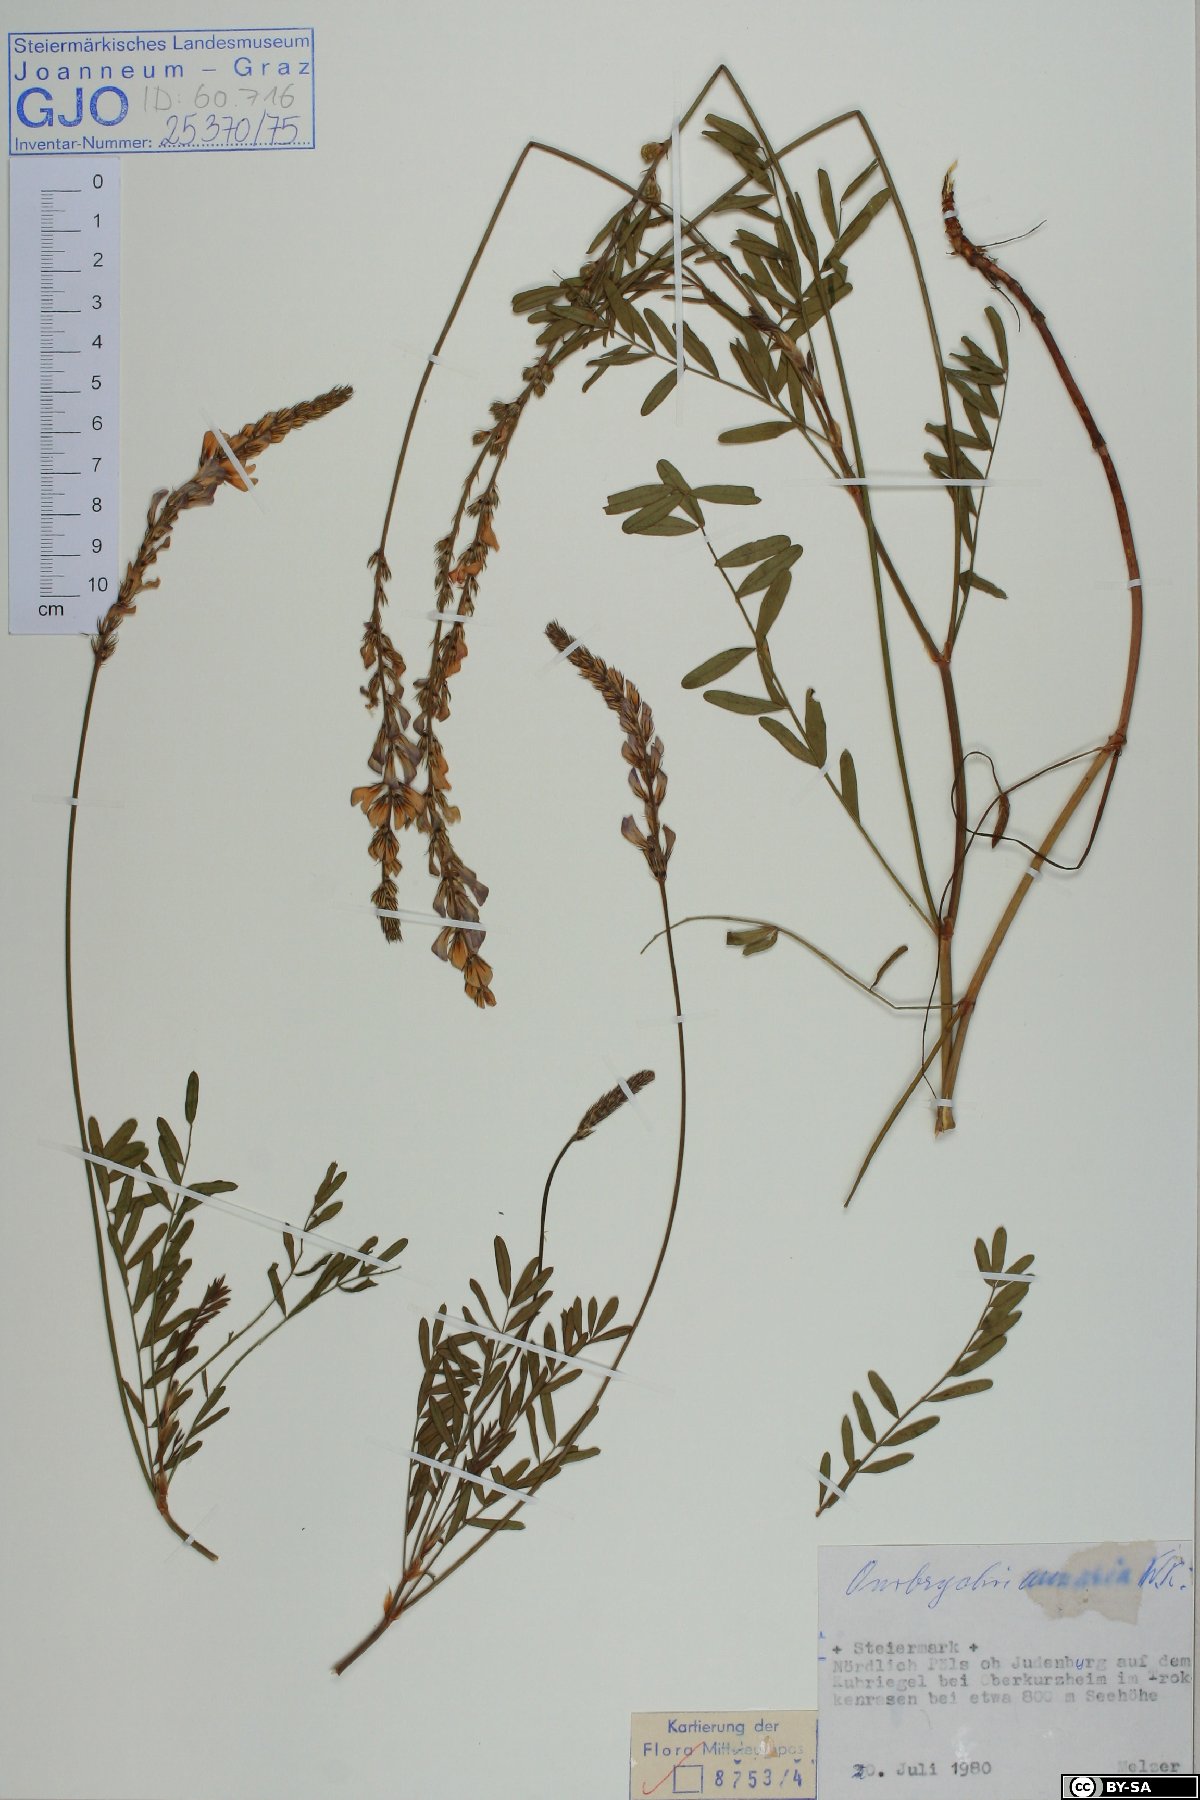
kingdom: Plantae
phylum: Tracheophyta
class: Magnoliopsida
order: Fabales
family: Fabaceae
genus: Onobrychis
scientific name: Onobrychis arenaria
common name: Sand esparcet
